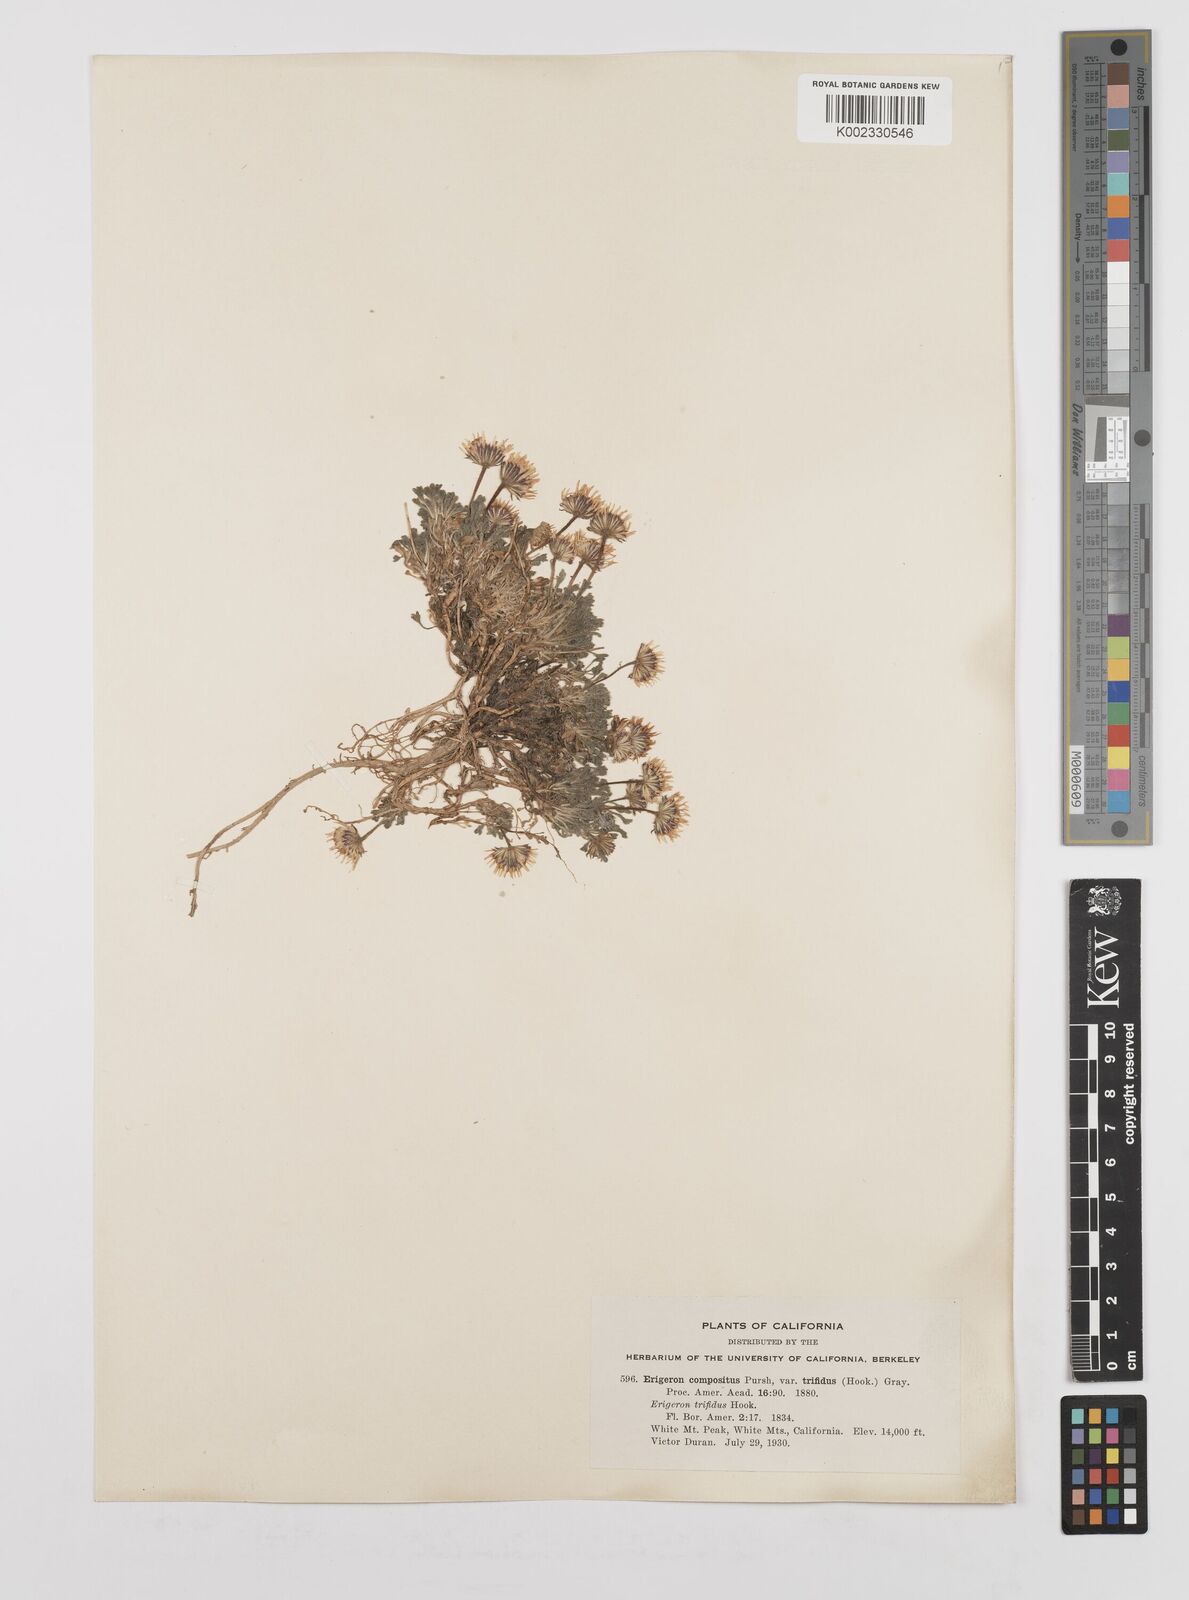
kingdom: Plantae
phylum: Tracheophyta
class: Magnoliopsida
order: Asterales
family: Asteraceae
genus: Erigeron
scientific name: Erigeron trifidus
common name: Alberta fleabane
